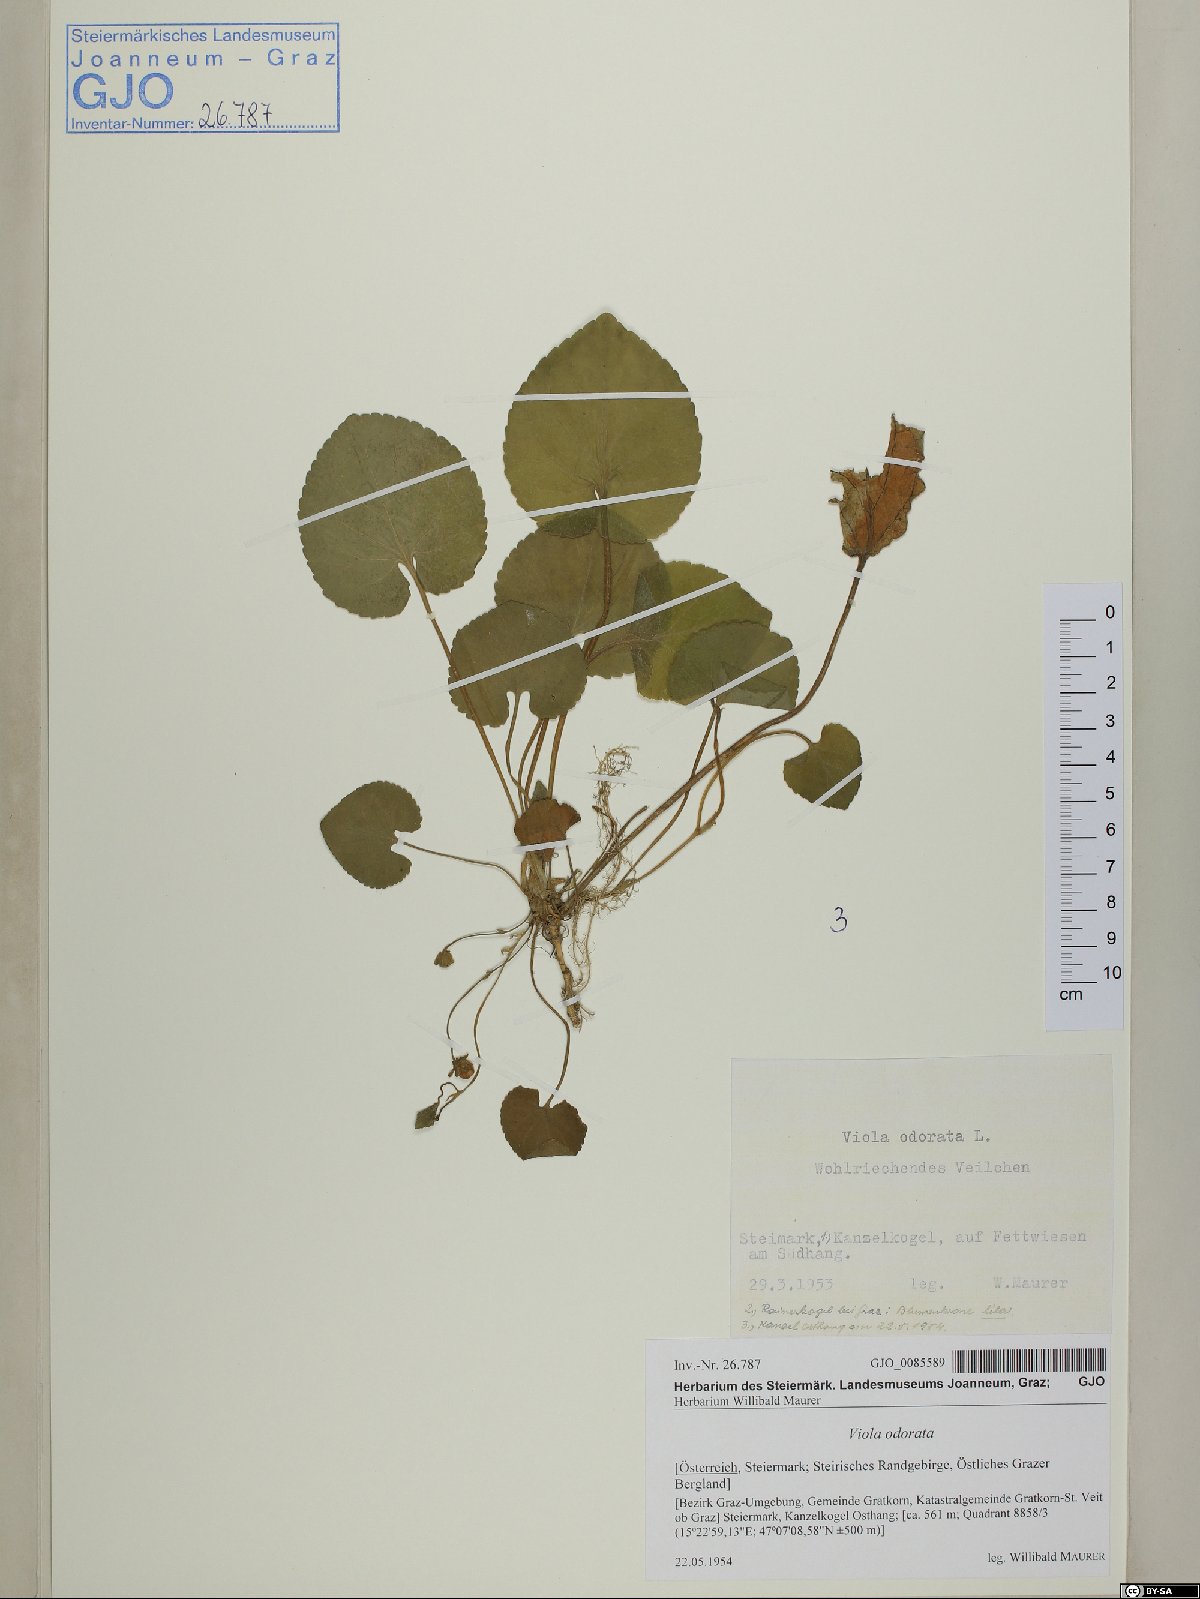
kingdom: Plantae
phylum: Tracheophyta
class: Magnoliopsida
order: Malpighiales
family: Violaceae
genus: Viola
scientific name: Viola odorata
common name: Sweet violet
